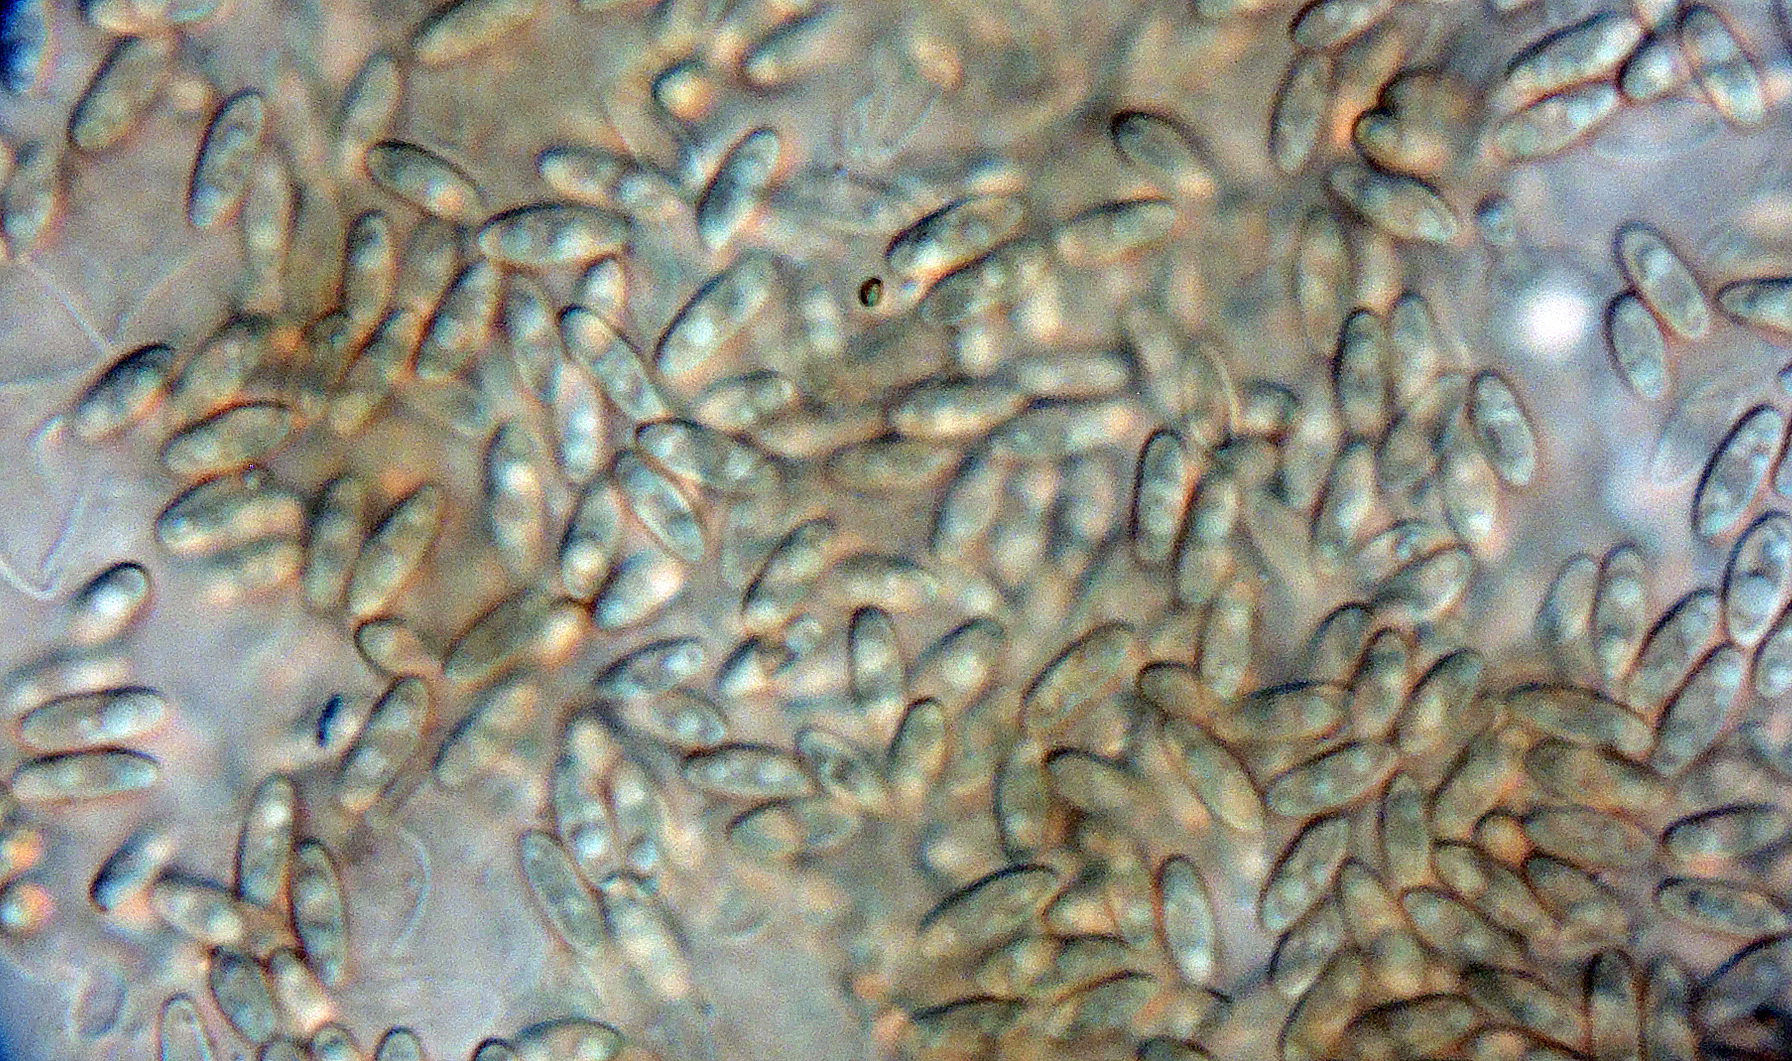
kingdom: Fungi
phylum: Basidiomycota
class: Agaricomycetes
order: Boletales
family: Rhizopogonaceae
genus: Rhizopogon
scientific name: Rhizopogon villosulus
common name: sortnende skægtrøffel
